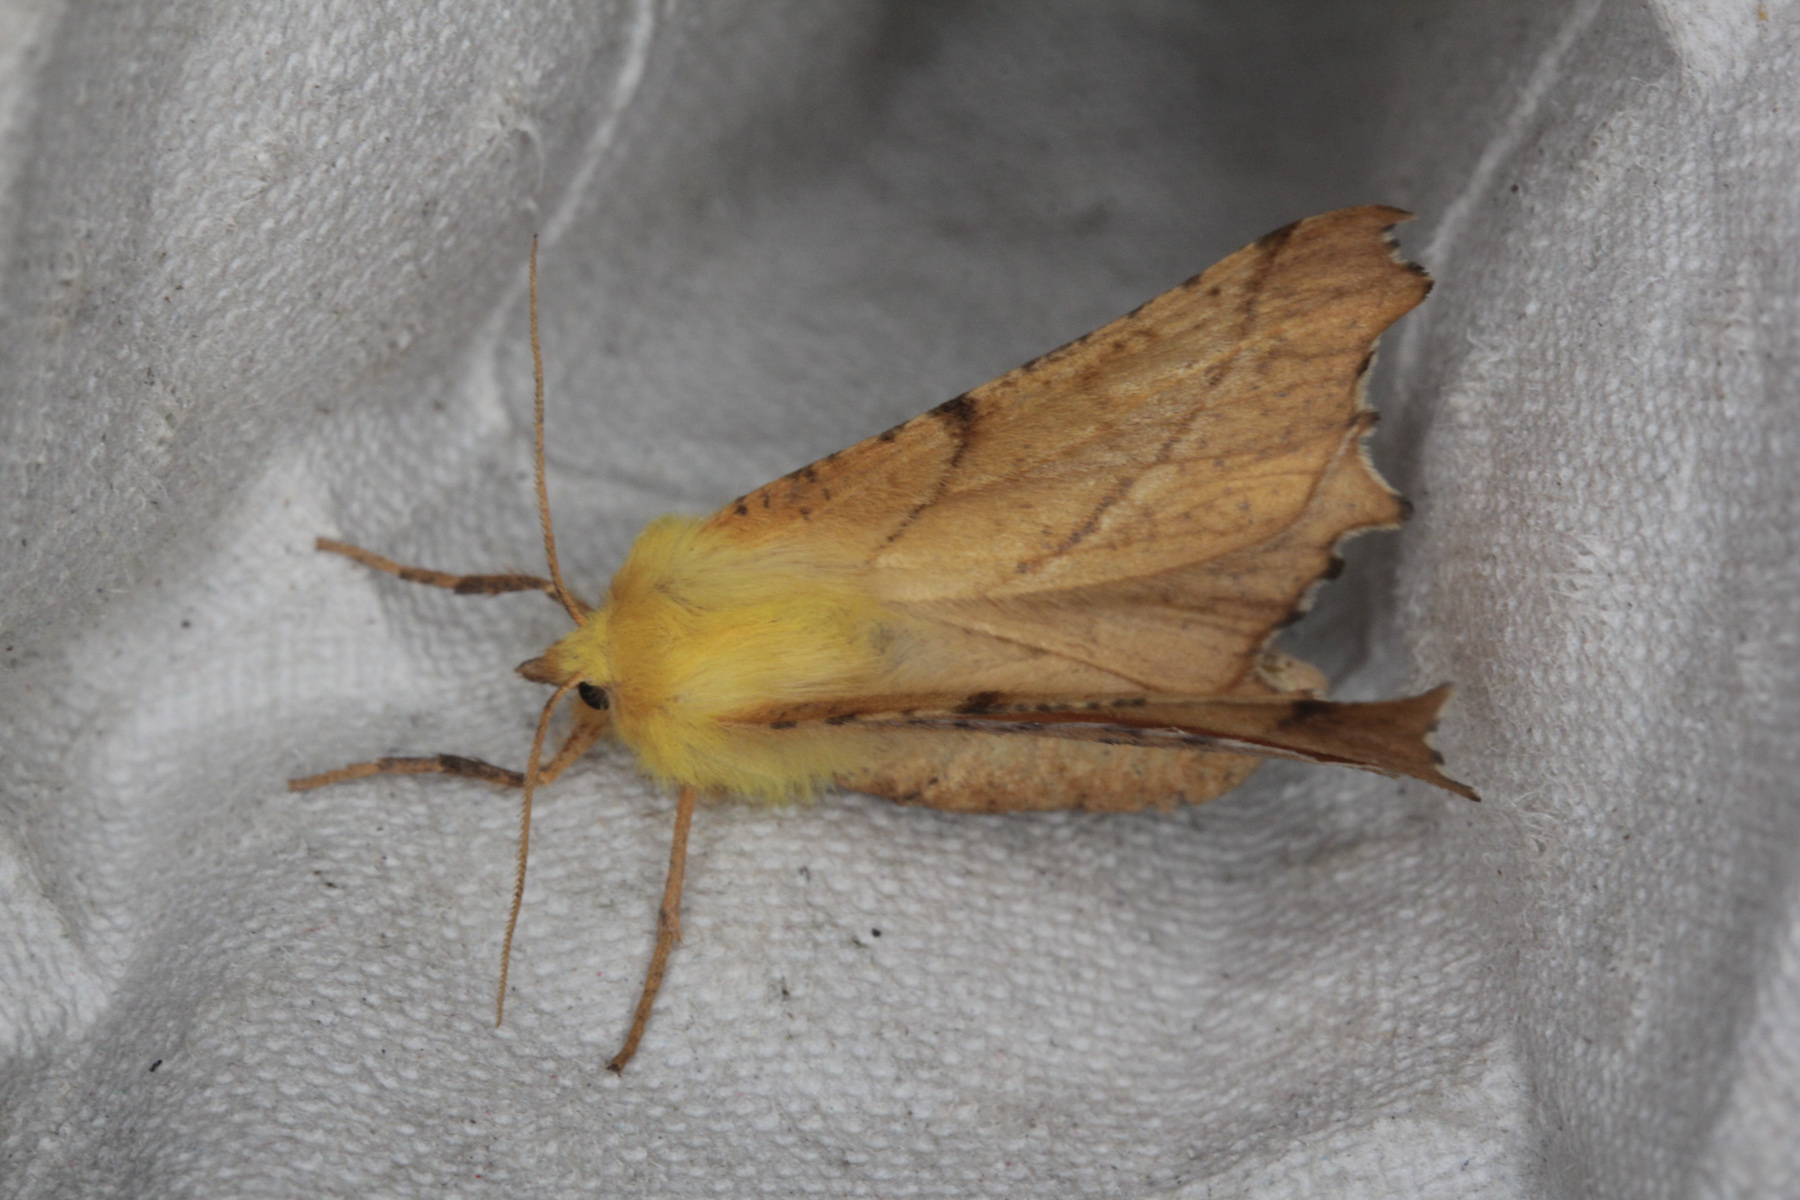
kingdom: Animalia
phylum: Arthropoda
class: Insecta
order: Lepidoptera
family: Geometridae
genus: Ennomos
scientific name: Ennomos alniaria
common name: Canary-shouldered thorn
